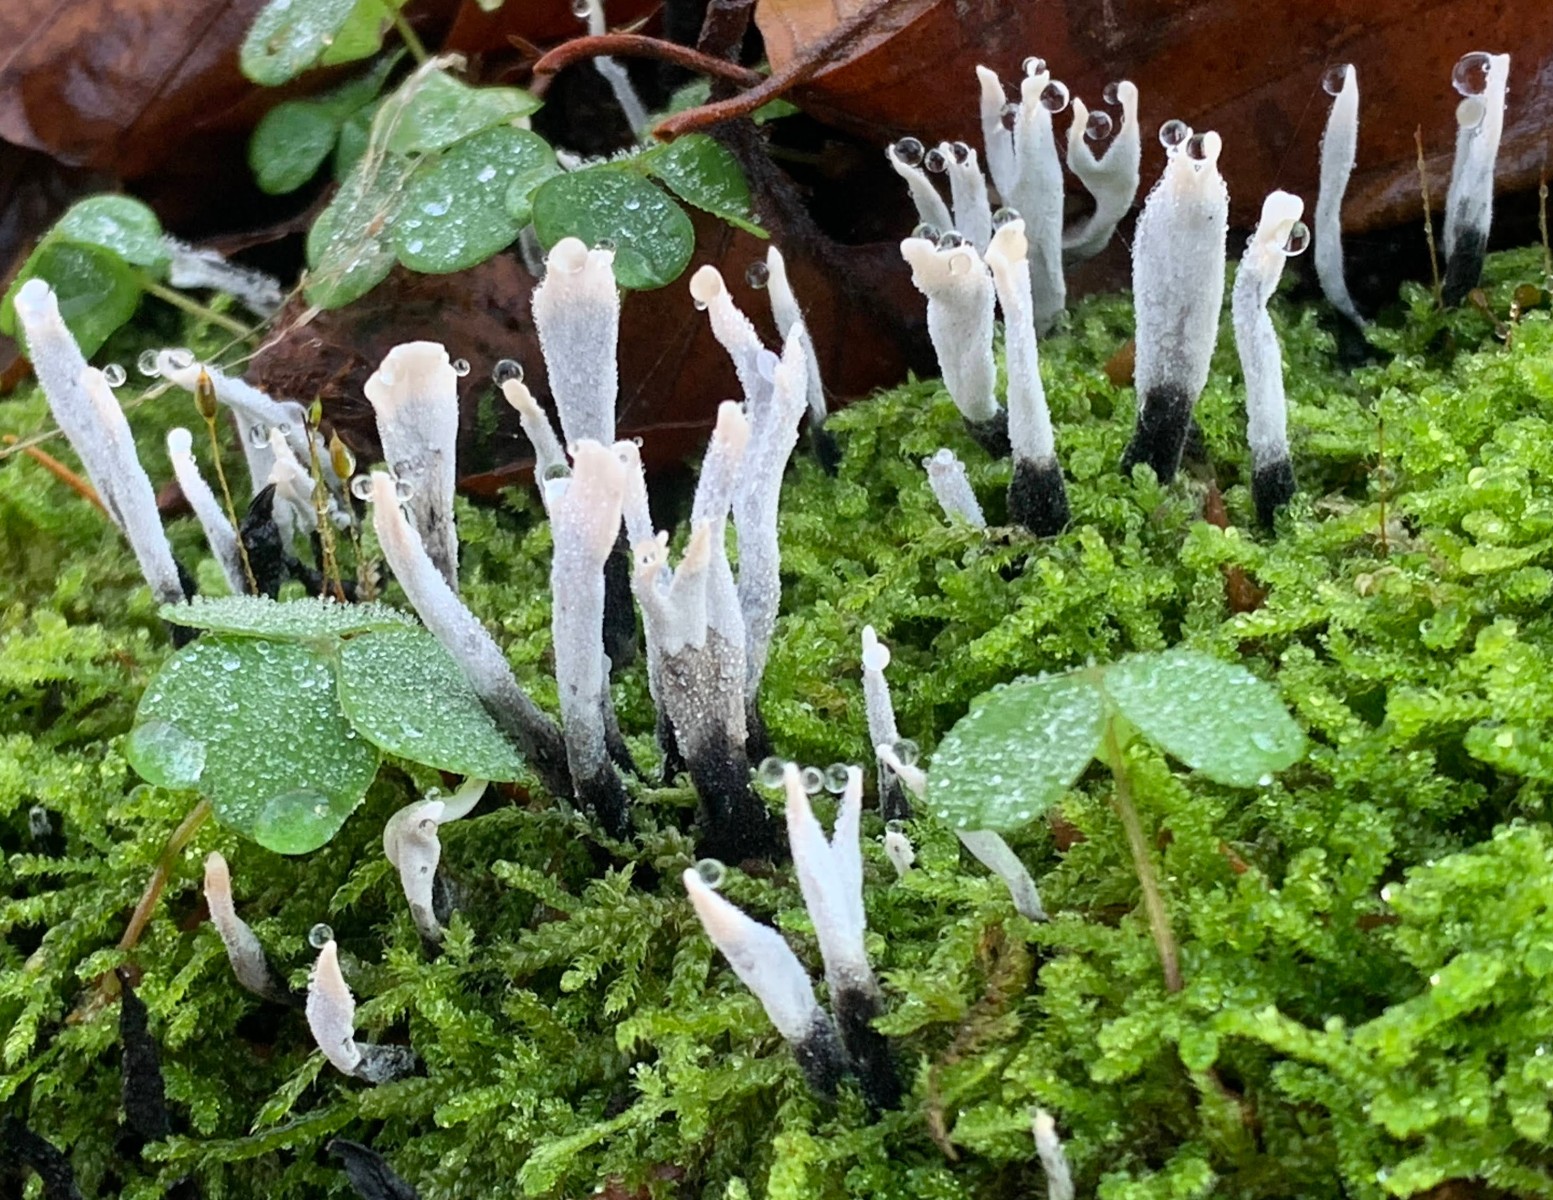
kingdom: Fungi
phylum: Ascomycota
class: Sordariomycetes
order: Xylariales
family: Xylariaceae
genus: Xylaria
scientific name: Xylaria hypoxylon
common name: grenet stødsvamp
